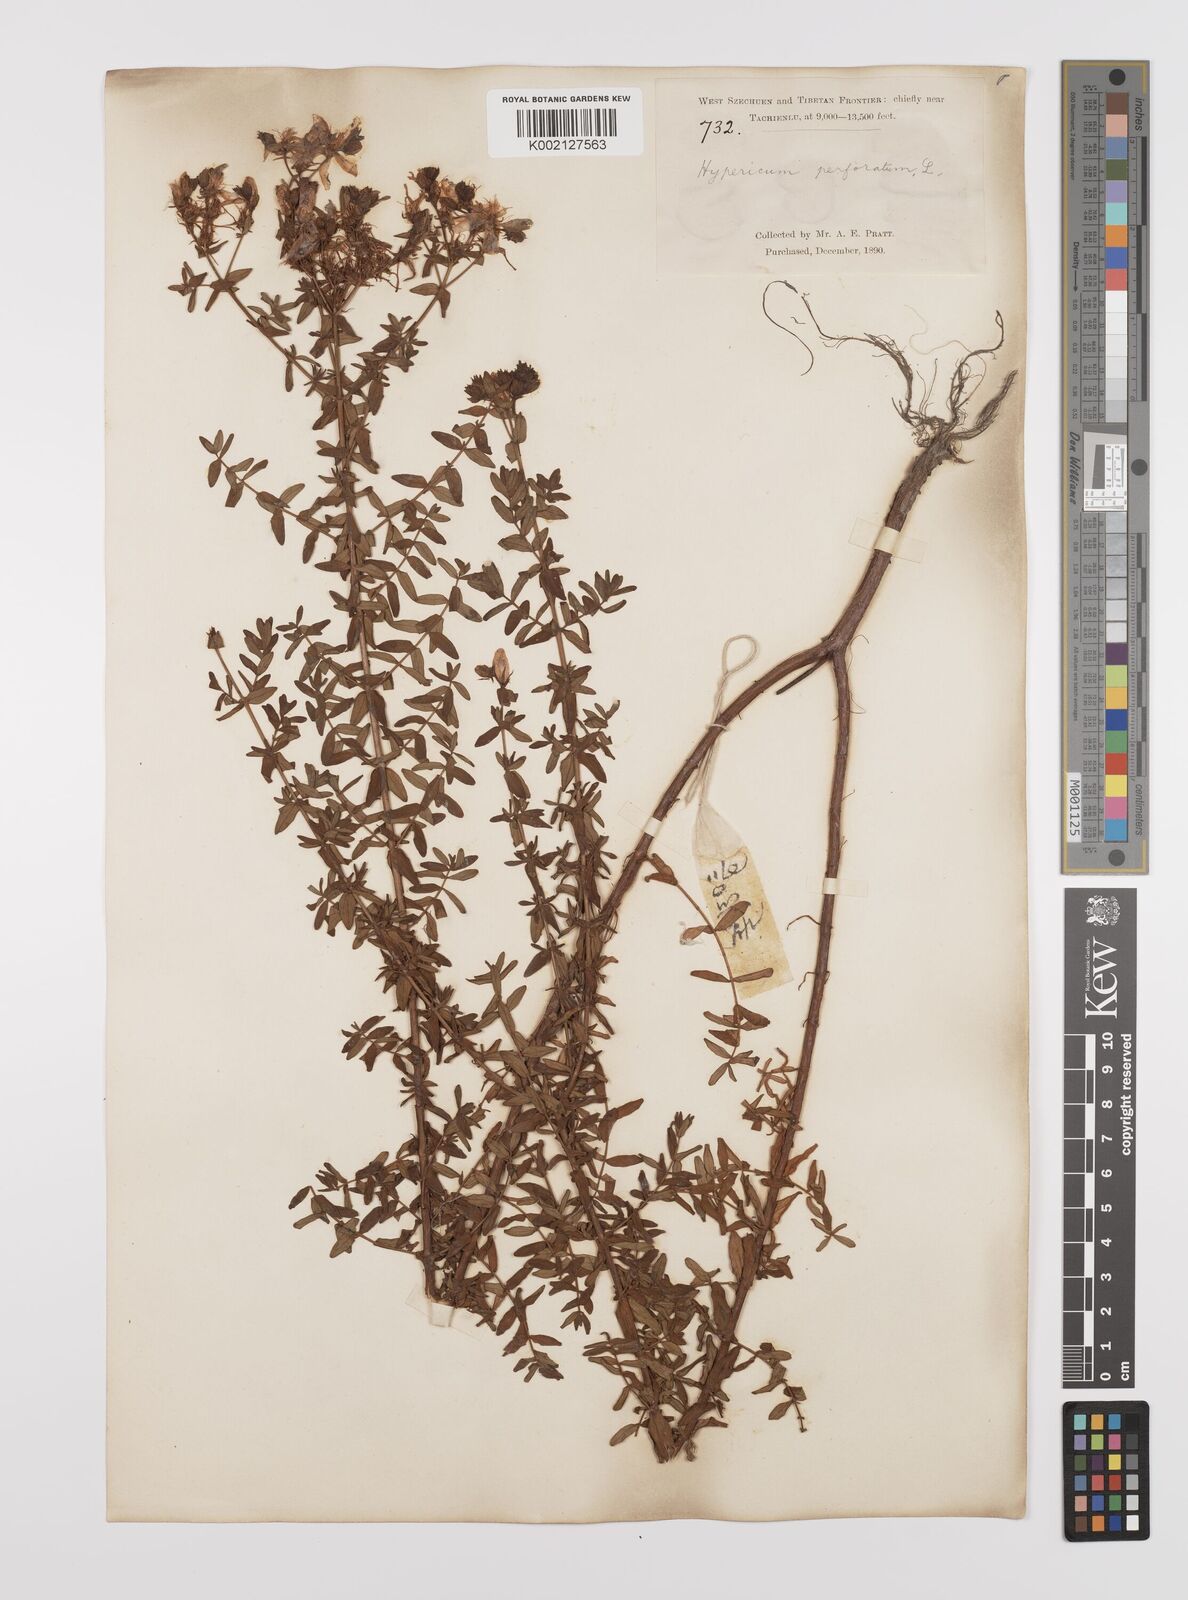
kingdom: Plantae
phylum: Tracheophyta
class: Magnoliopsida
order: Malpighiales
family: Hypericaceae
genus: Hypericum
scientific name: Hypericum perforatum
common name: Common st. johnswort
